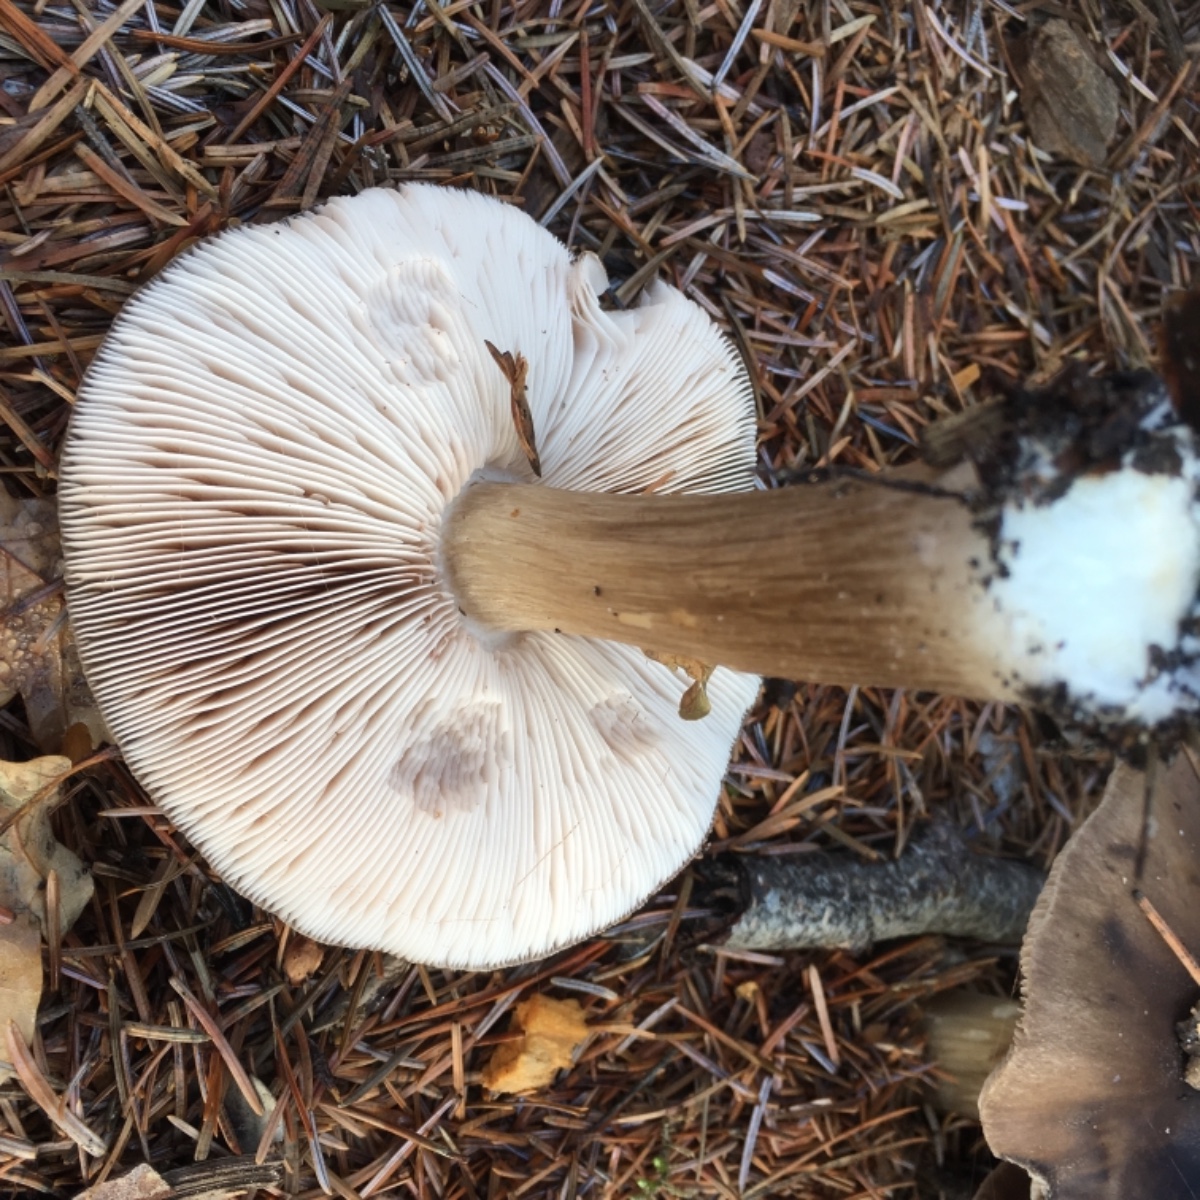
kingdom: Fungi
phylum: Basidiomycota
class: Agaricomycetes
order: Agaricales
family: Pluteaceae
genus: Pluteus
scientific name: Pluteus cervinus
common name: sodfarvet skærmhat
